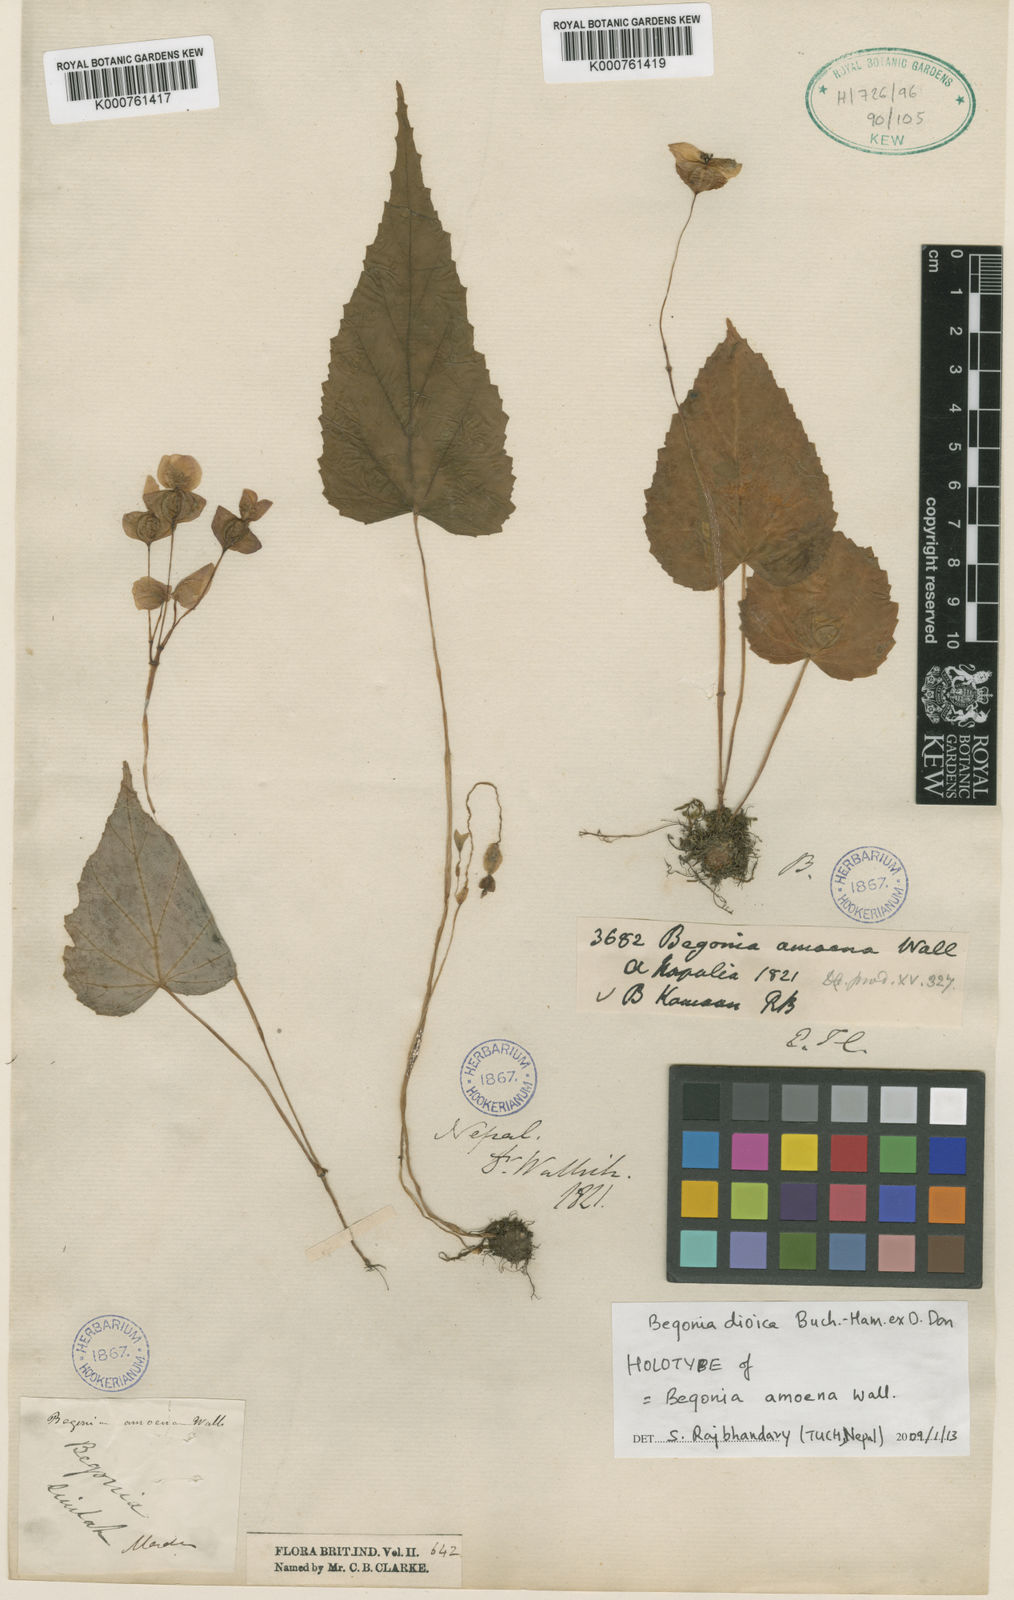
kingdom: Plantae
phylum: Tracheophyta
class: Magnoliopsida
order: Cucurbitales
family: Begoniaceae
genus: Begonia
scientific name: Begonia dioica
